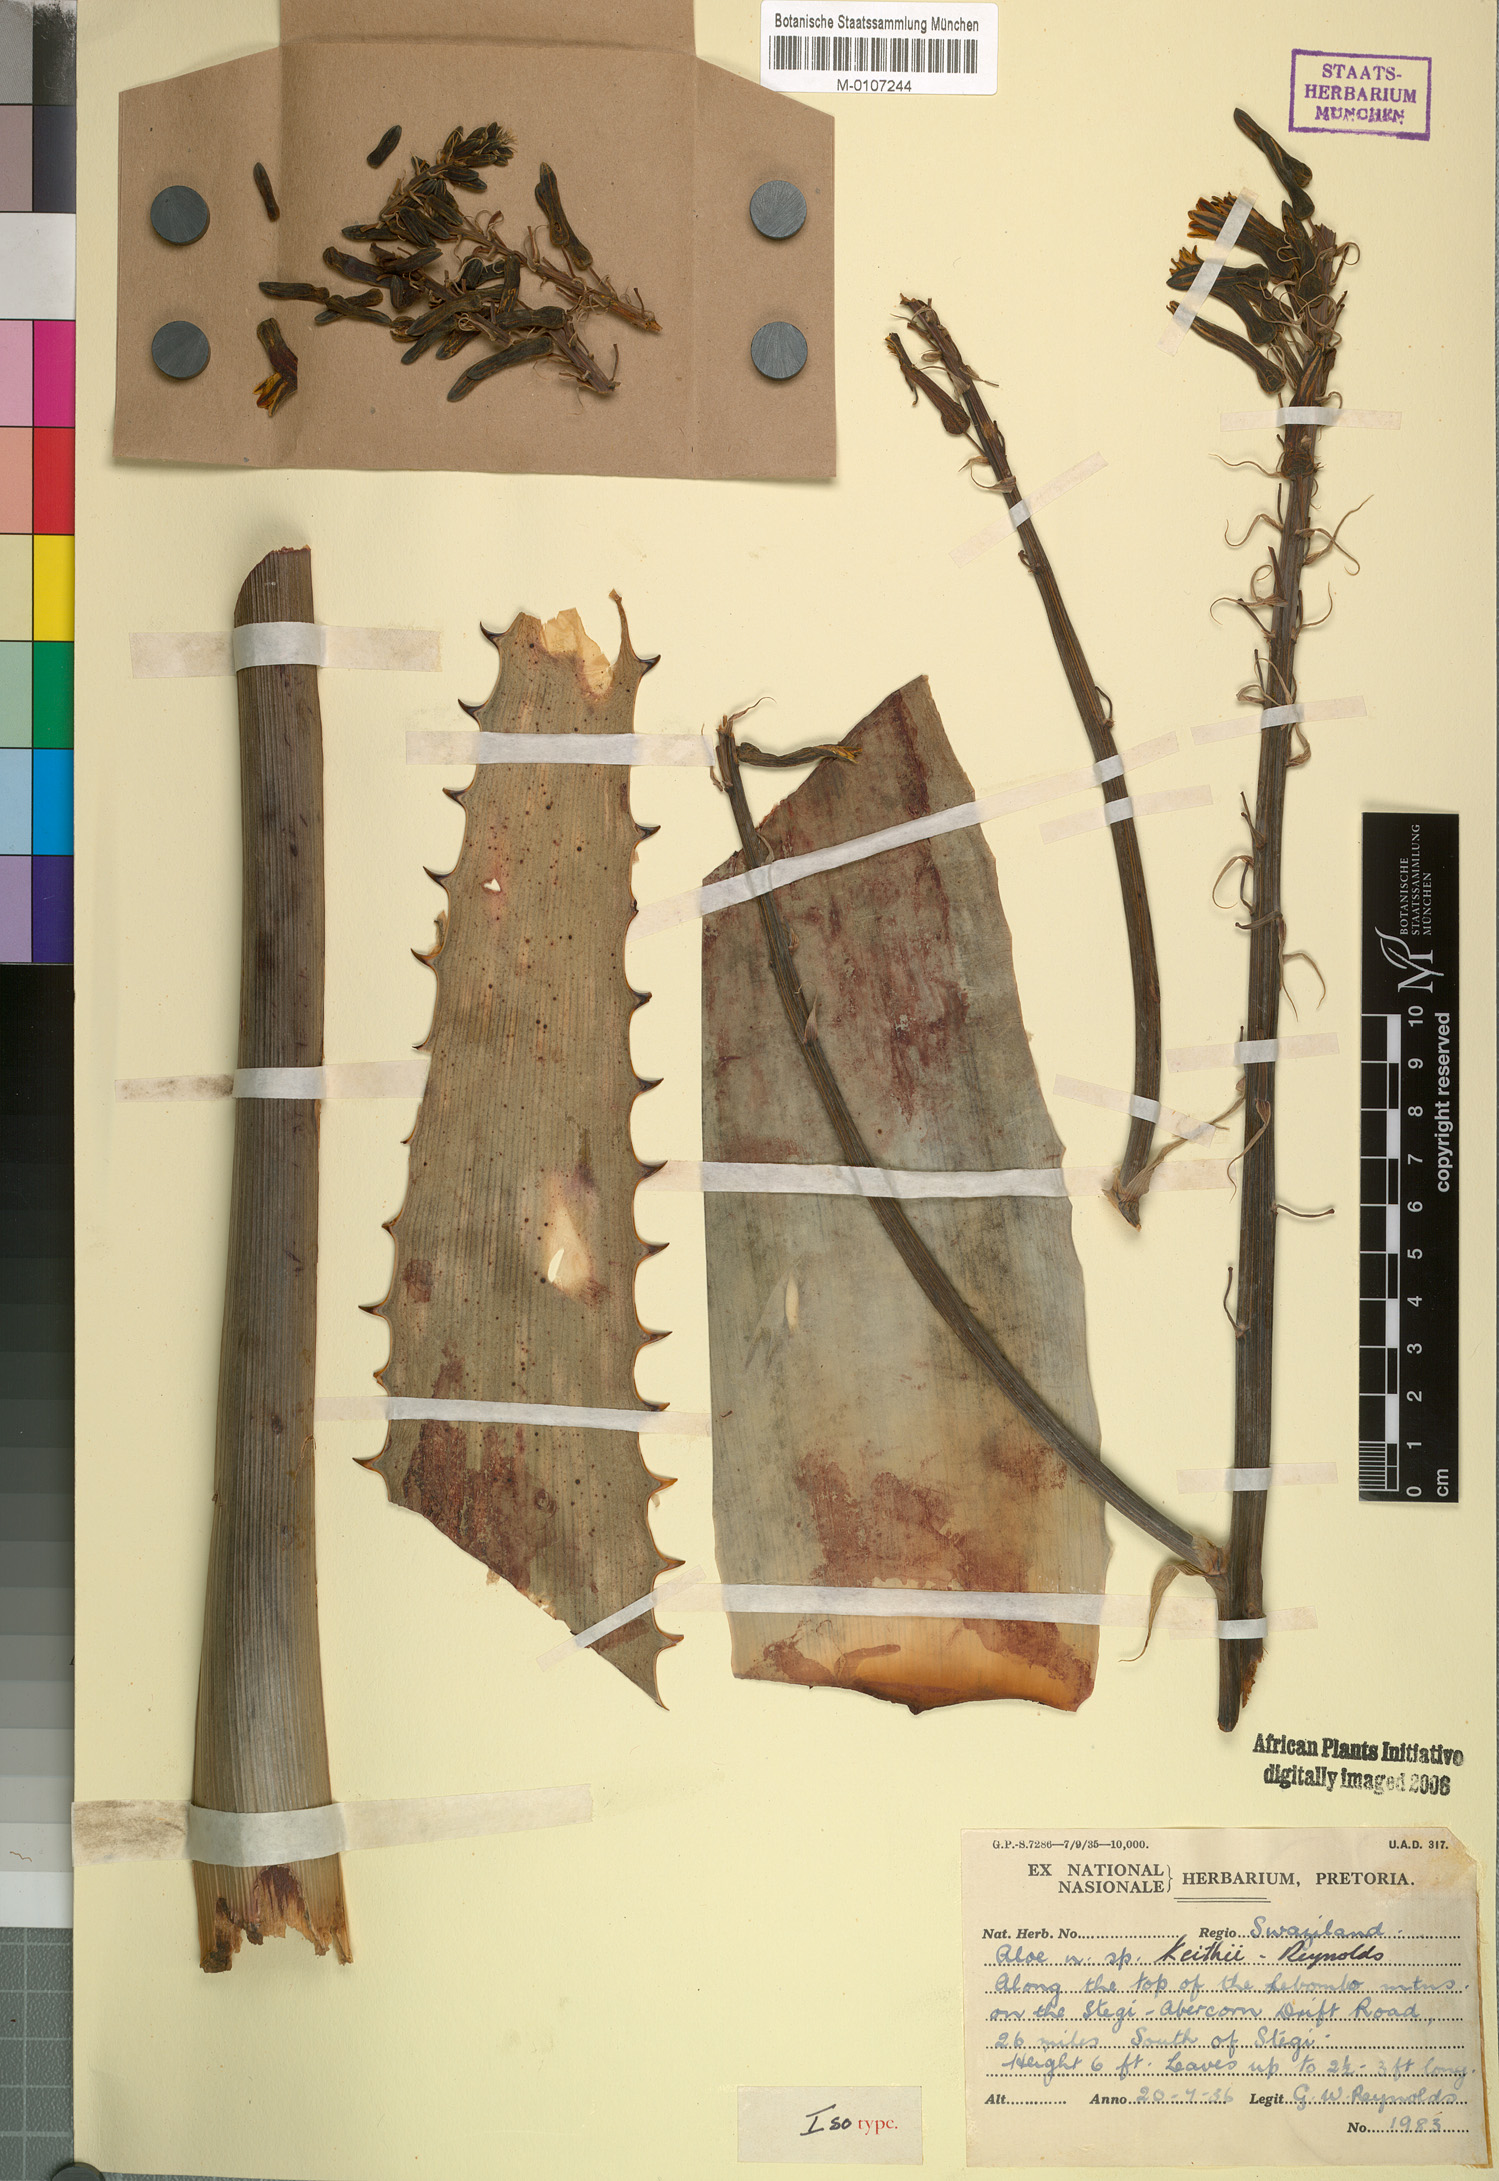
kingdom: Plantae
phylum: Tracheophyta
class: Liliopsida
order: Asparagales
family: Asphodelaceae
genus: Aloe
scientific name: Aloe parvibracteata
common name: Lowveld spotted aloe
